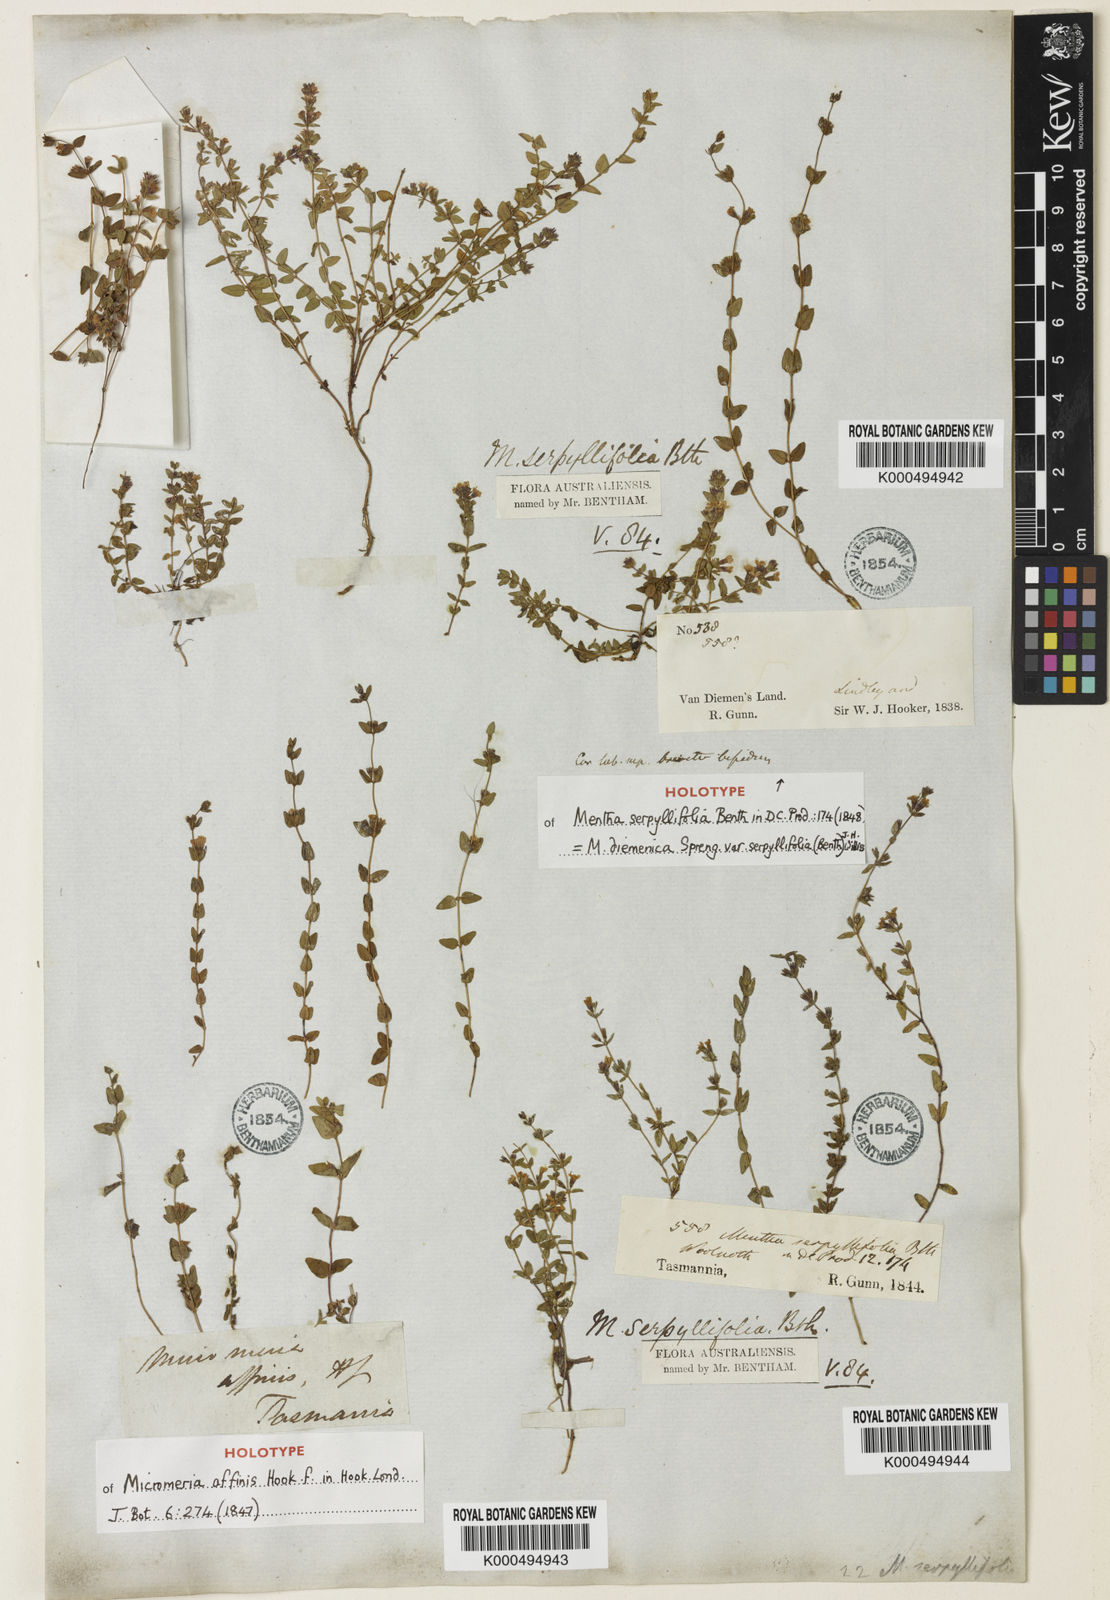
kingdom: Plantae
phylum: Tracheophyta
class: Magnoliopsida
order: Lamiales
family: Lamiaceae
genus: Mentha
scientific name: Mentha diemenica
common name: Wild mint
